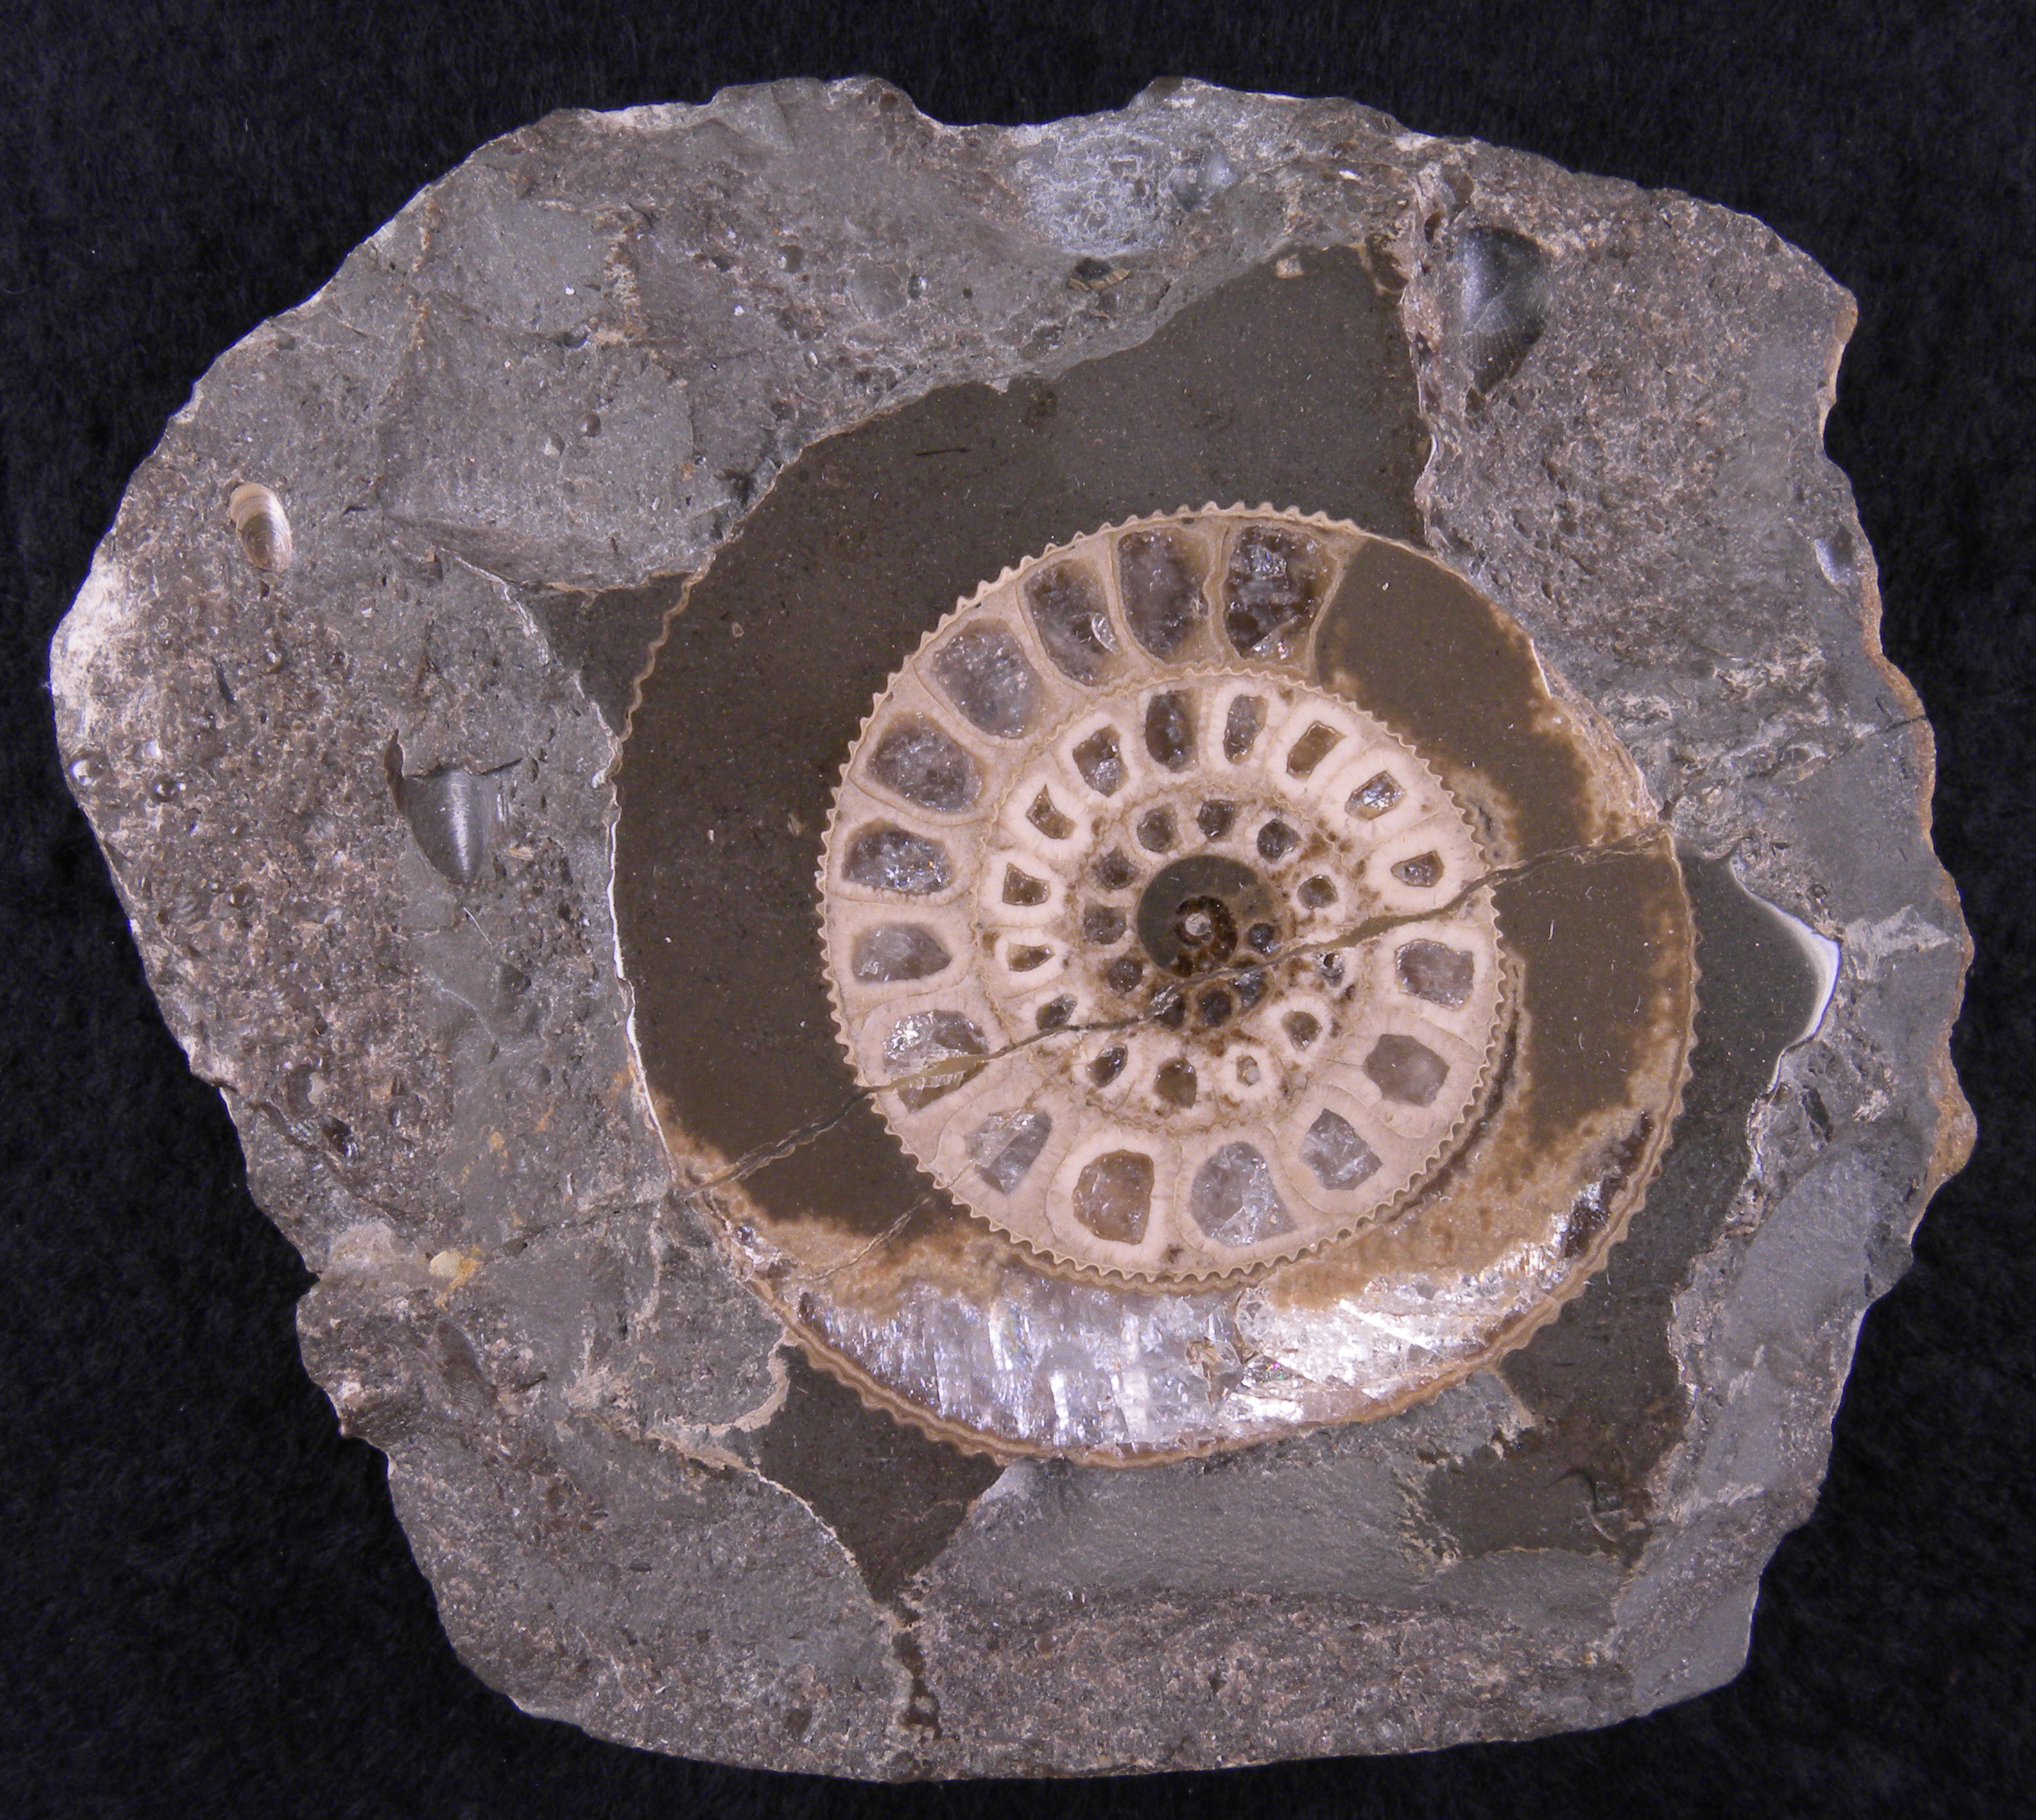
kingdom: Animalia
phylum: Mollusca
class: Cephalopoda
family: Dactylioceratidae
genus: Dactylioceras
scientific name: Dactylioceras
